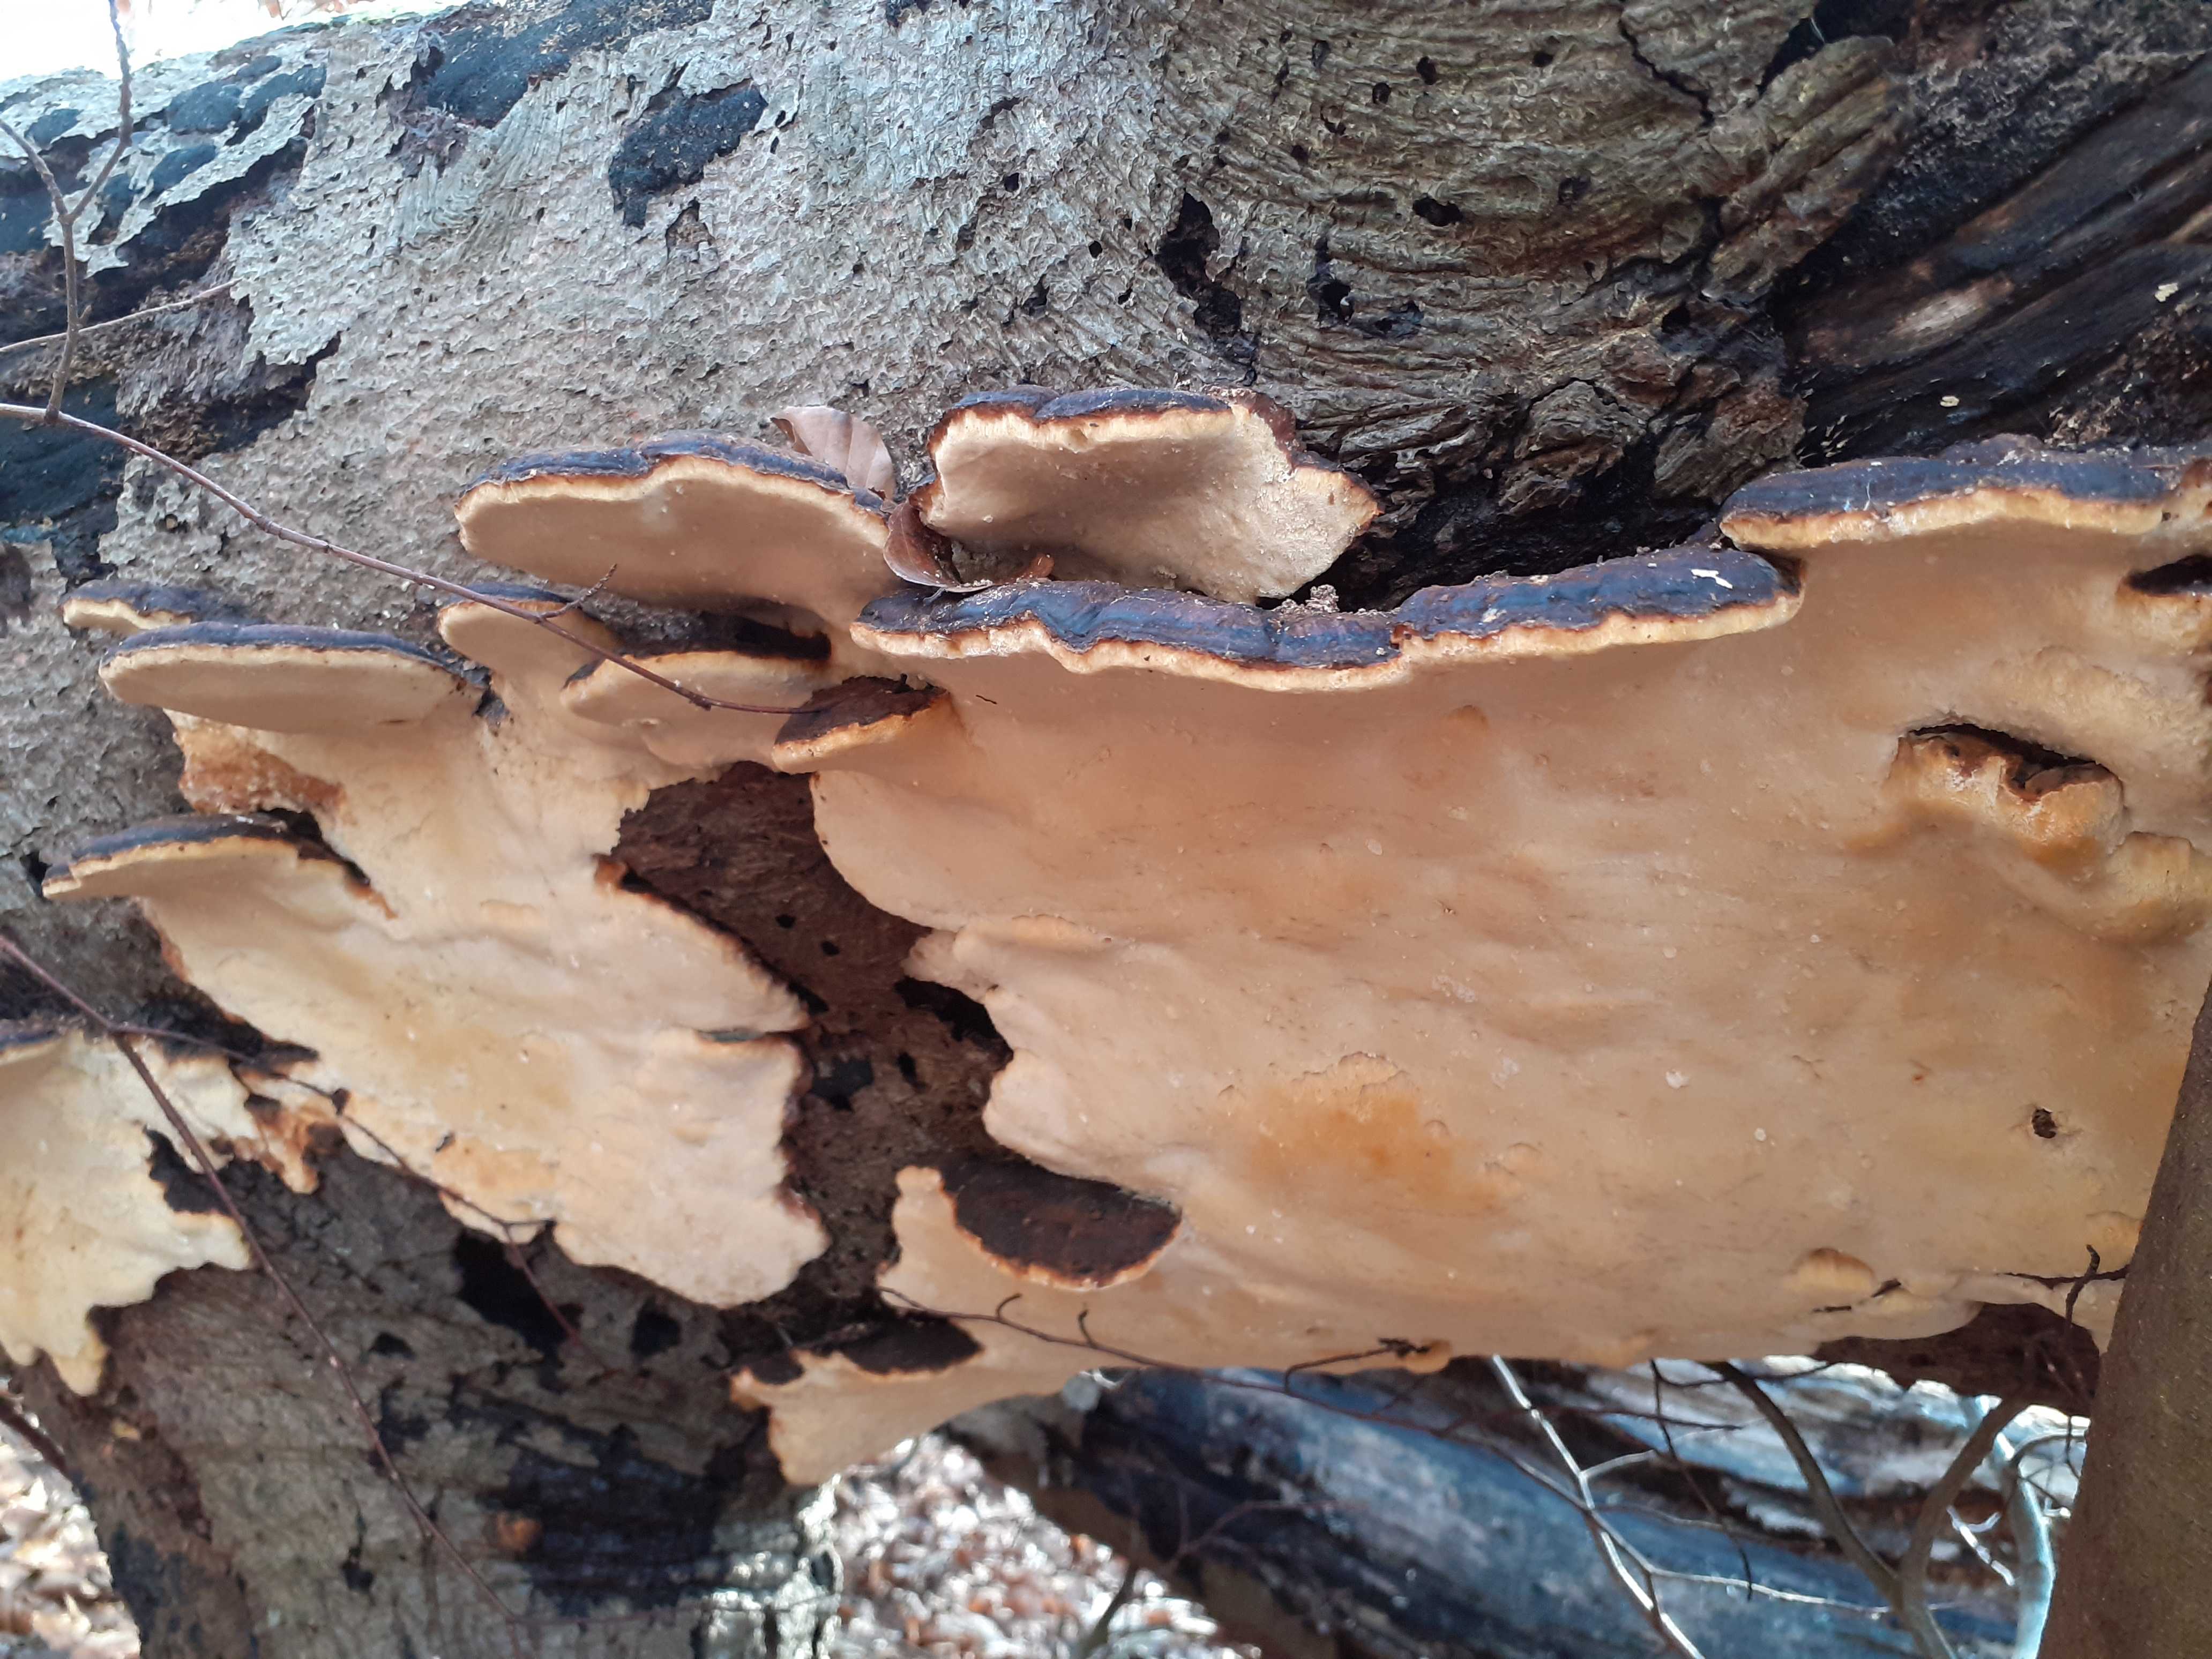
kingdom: Fungi
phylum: Basidiomycota
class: Agaricomycetes
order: Polyporales
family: Ischnodermataceae
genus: Ischnoderma
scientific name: Ischnoderma resinosum
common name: løv-tjæreporesvamp
